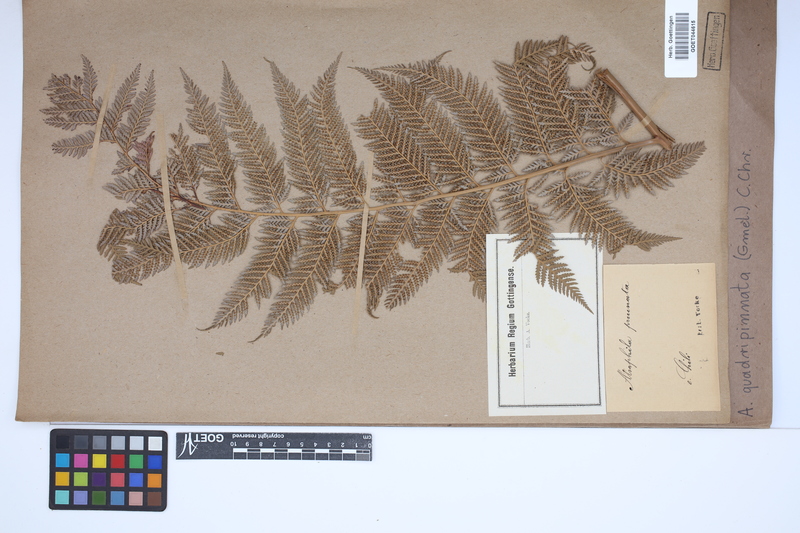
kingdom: Plantae
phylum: Tracheophyta
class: Polypodiopsida
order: Cyatheales
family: Dicksoniaceae
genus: Lophosoria
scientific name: Lophosoria quadripinnata
